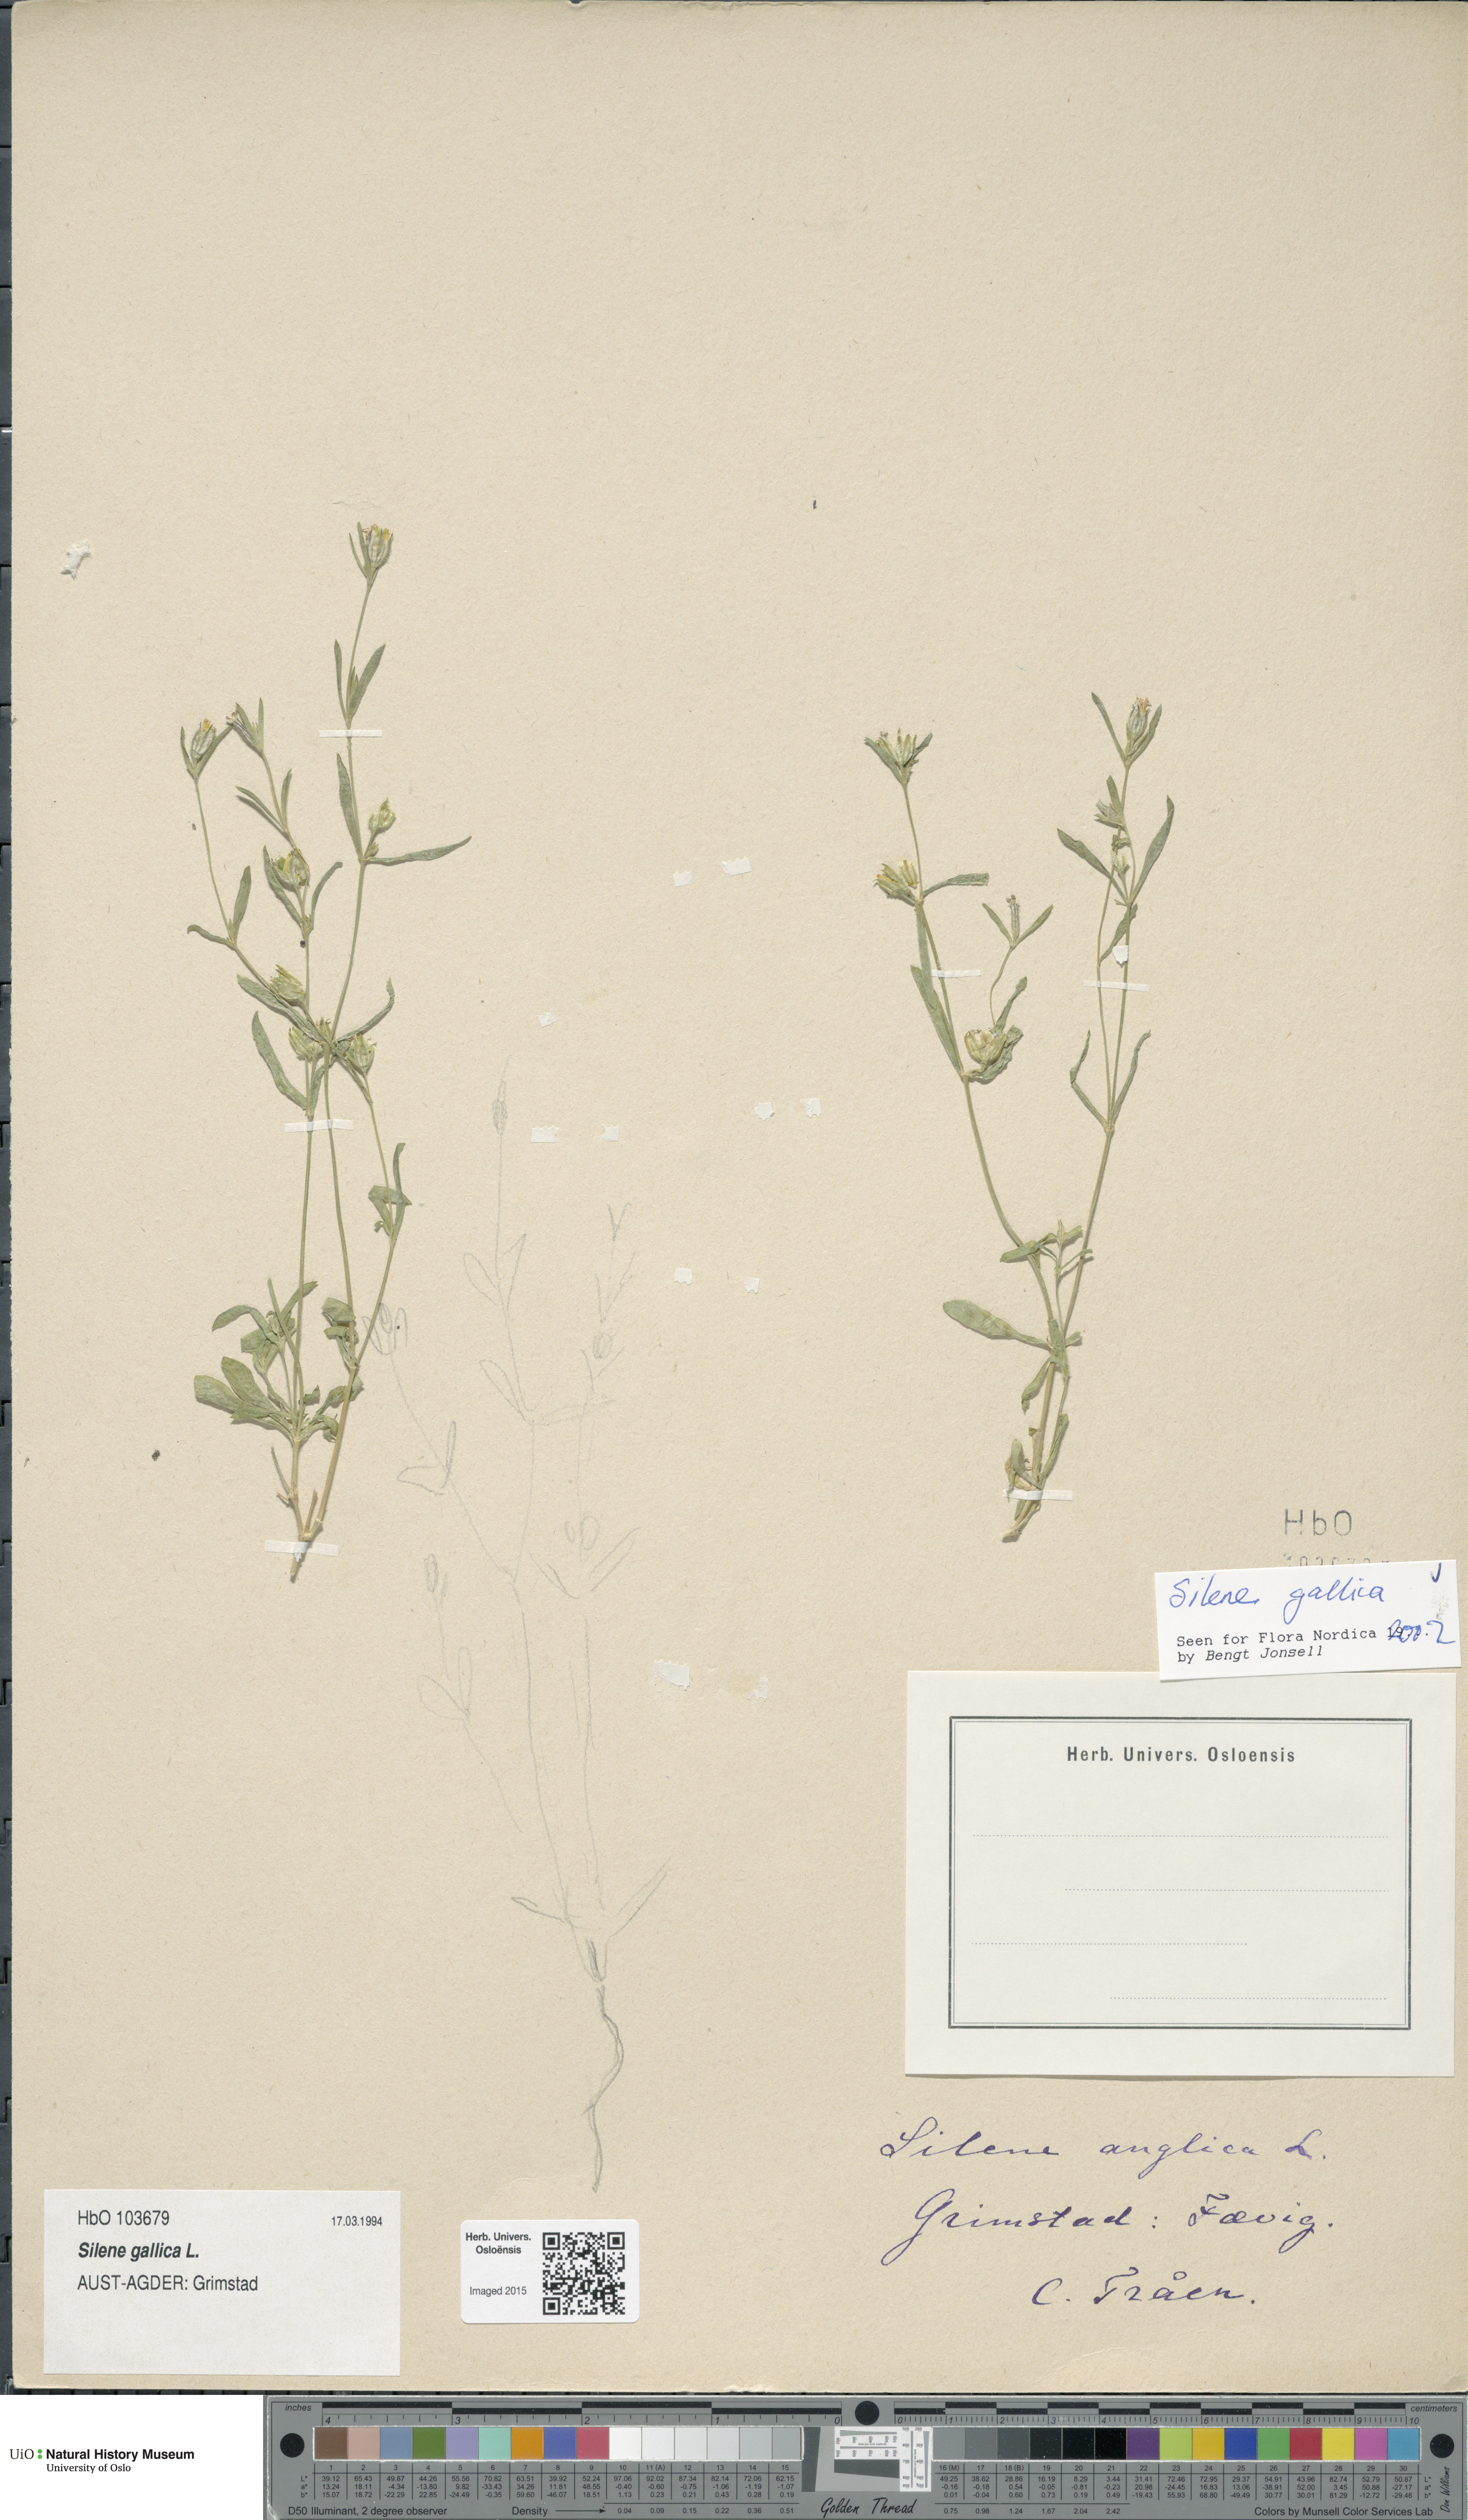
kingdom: Plantae
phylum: Tracheophyta
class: Magnoliopsida
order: Caryophyllales
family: Caryophyllaceae
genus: Silene
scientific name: Silene gallica
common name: Small-flowered catchfly
